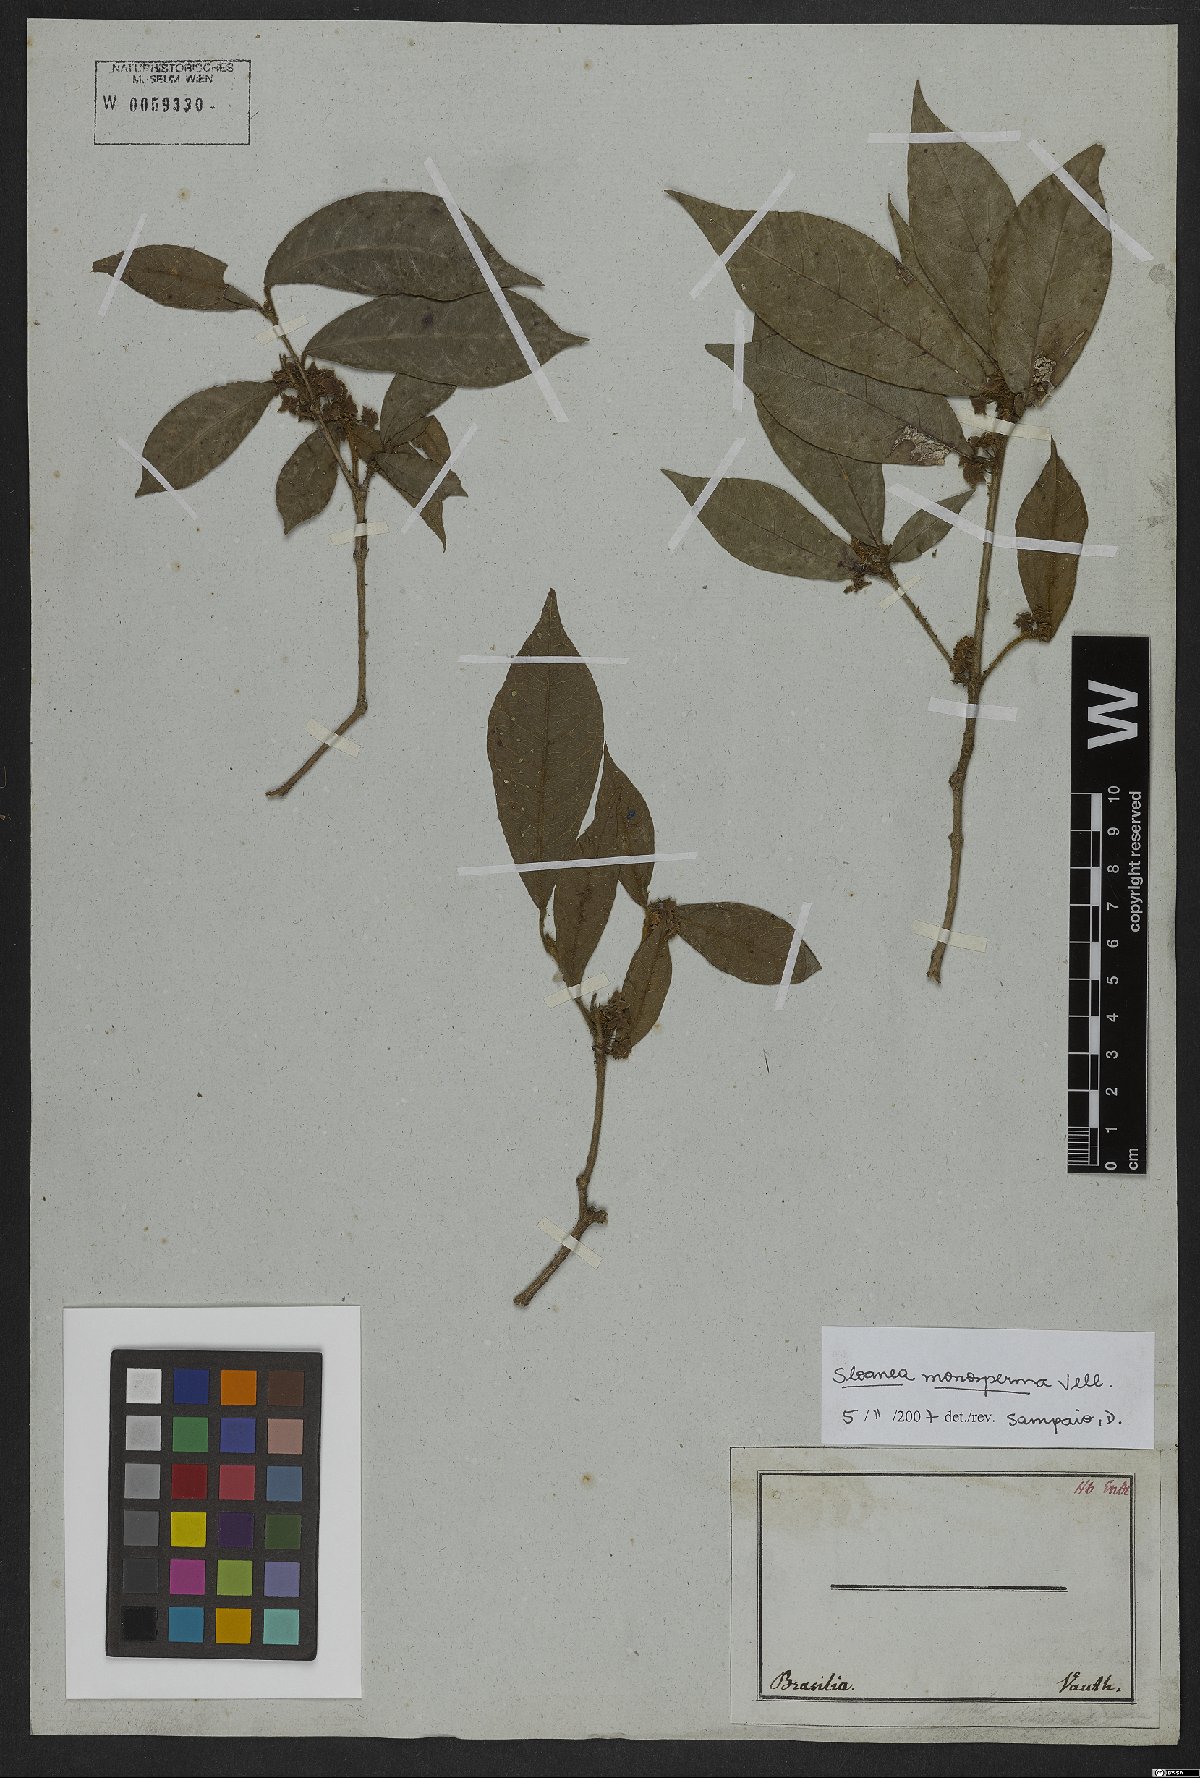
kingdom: Plantae
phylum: Tracheophyta
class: Magnoliopsida
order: Oxalidales
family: Elaeocarpaceae
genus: Sloanea
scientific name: Sloanea hirsuta
